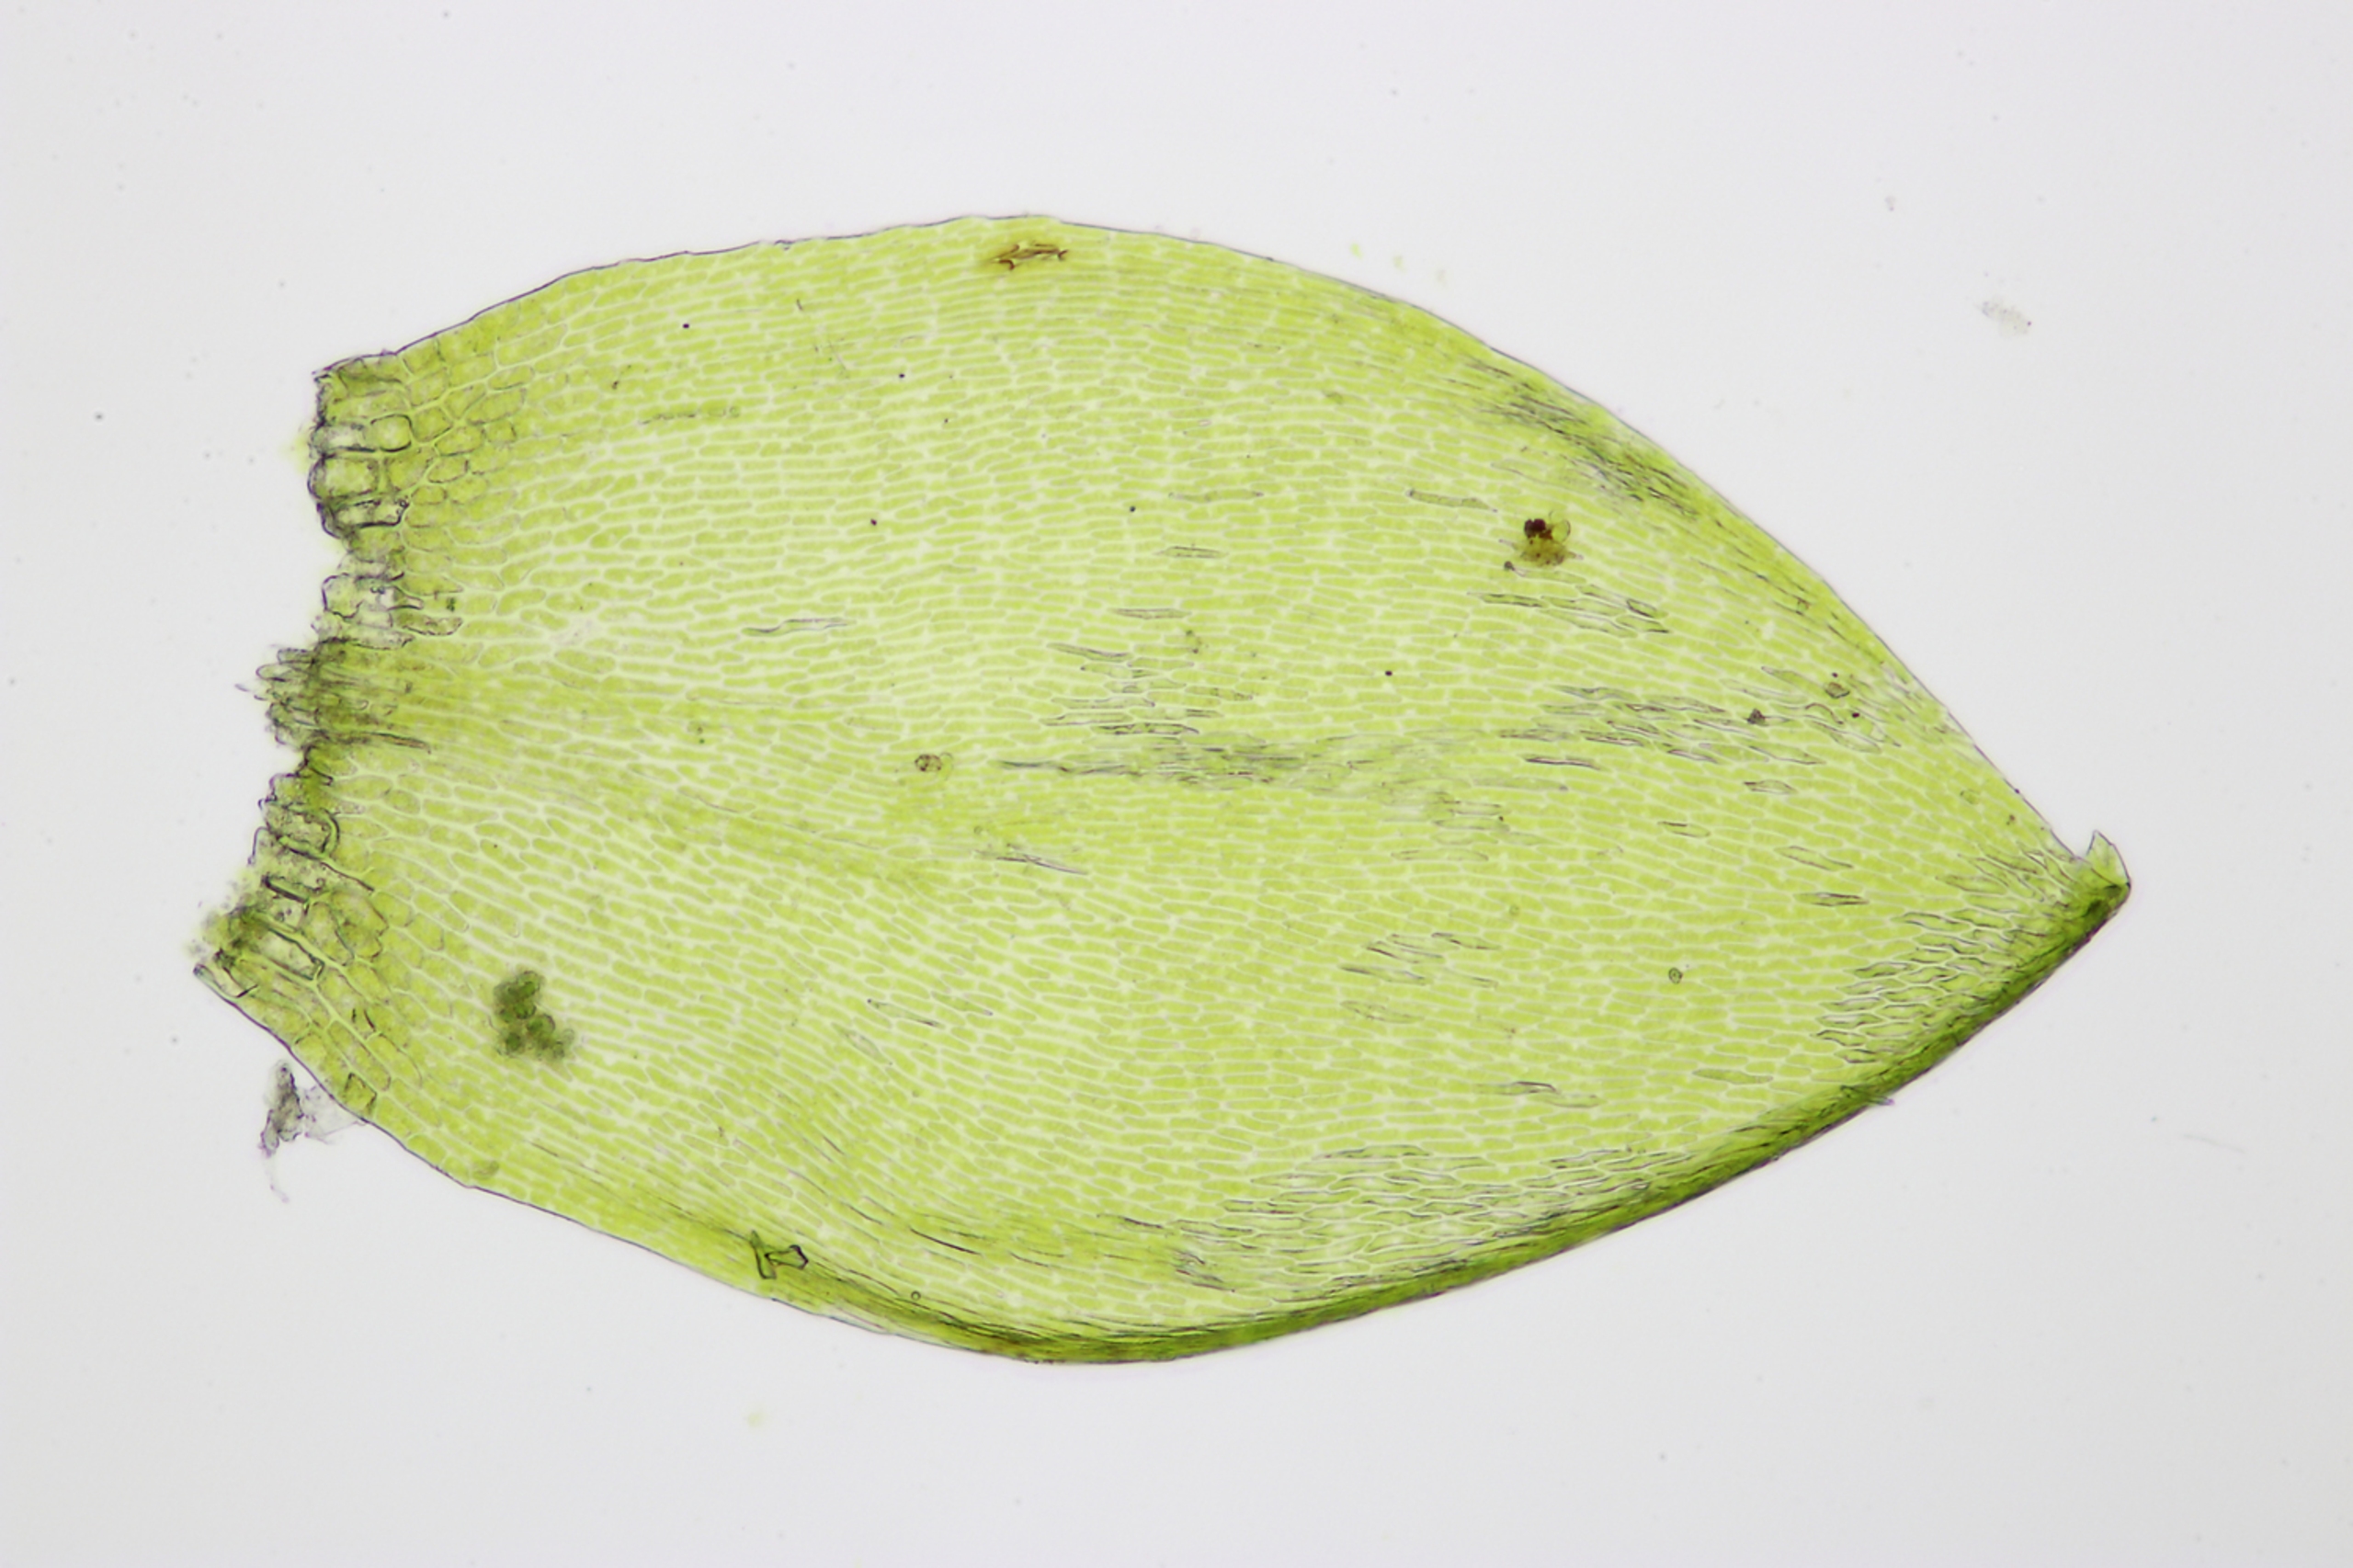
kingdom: Plantae
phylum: Bryophyta
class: Bryopsida
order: Hypnales
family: Amblystegiaceae
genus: Hygrohypnum
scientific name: Hygrohypnum luridum
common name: Krum møllemos
